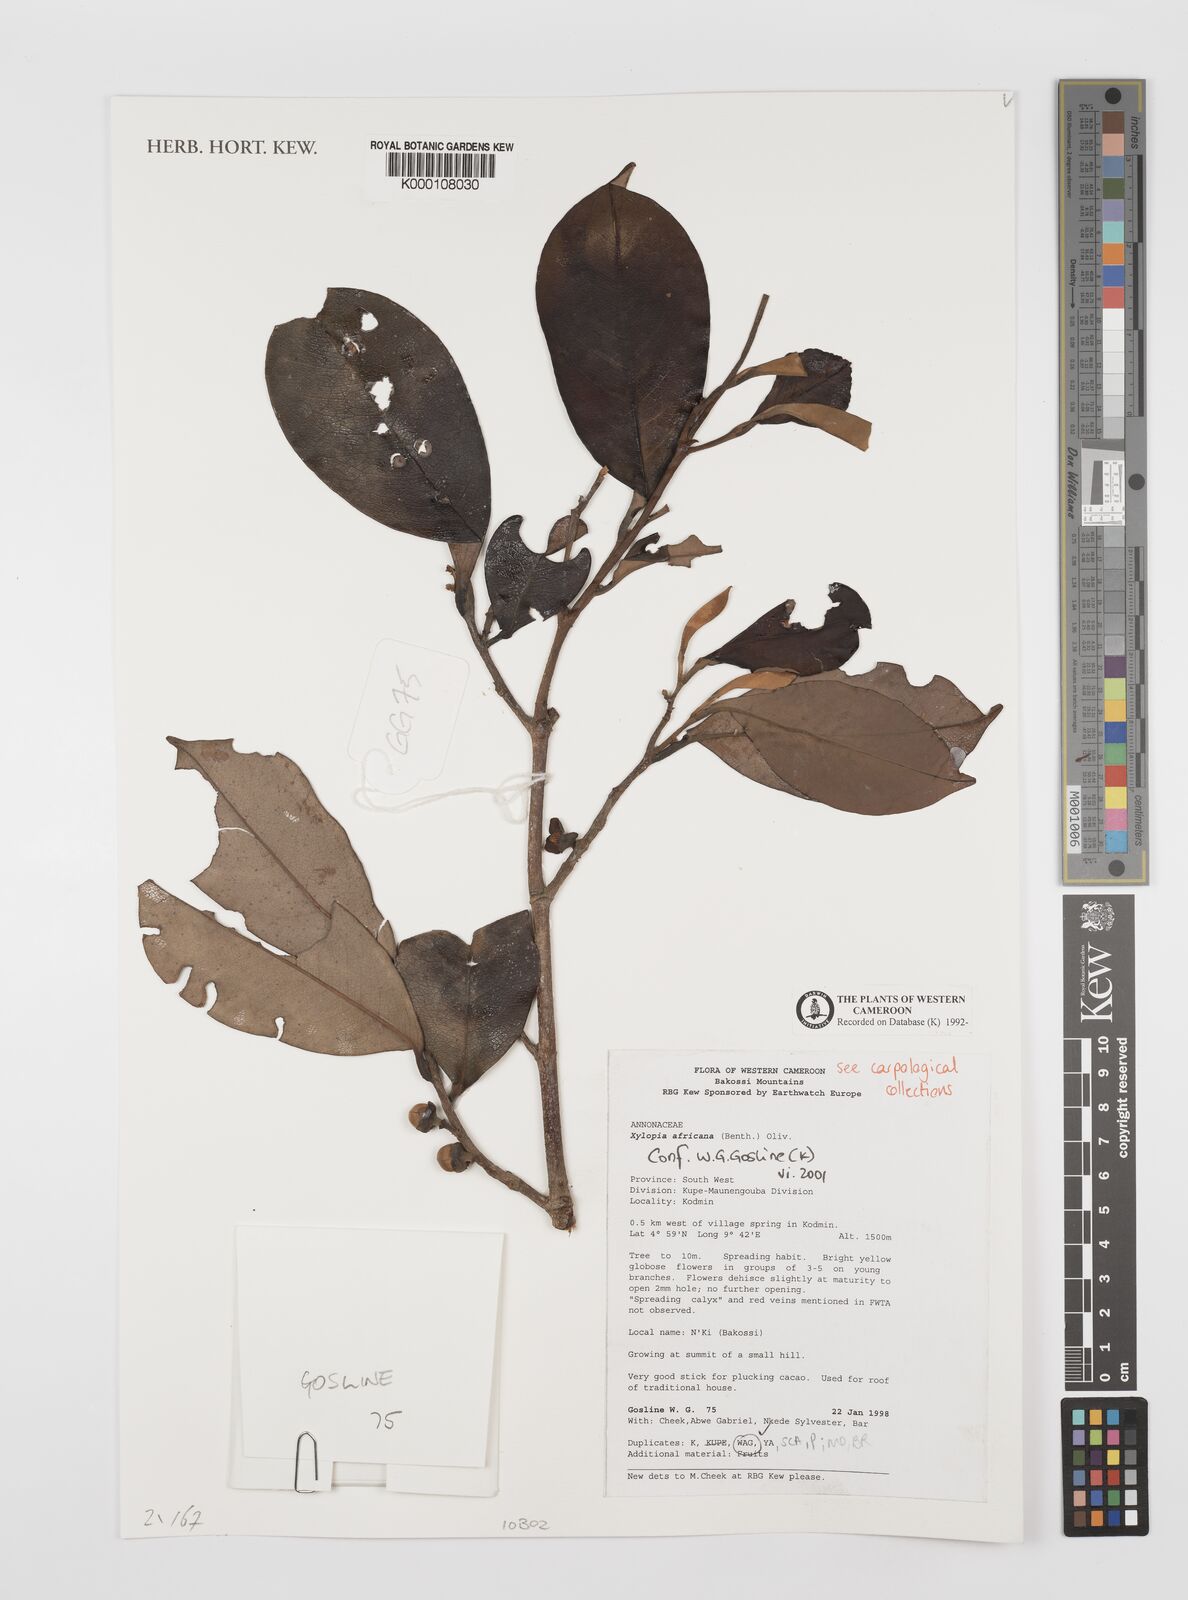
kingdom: Plantae
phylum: Tracheophyta
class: Magnoliopsida
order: Magnoliales
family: Annonaceae
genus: Xylopia
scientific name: Xylopia africana
